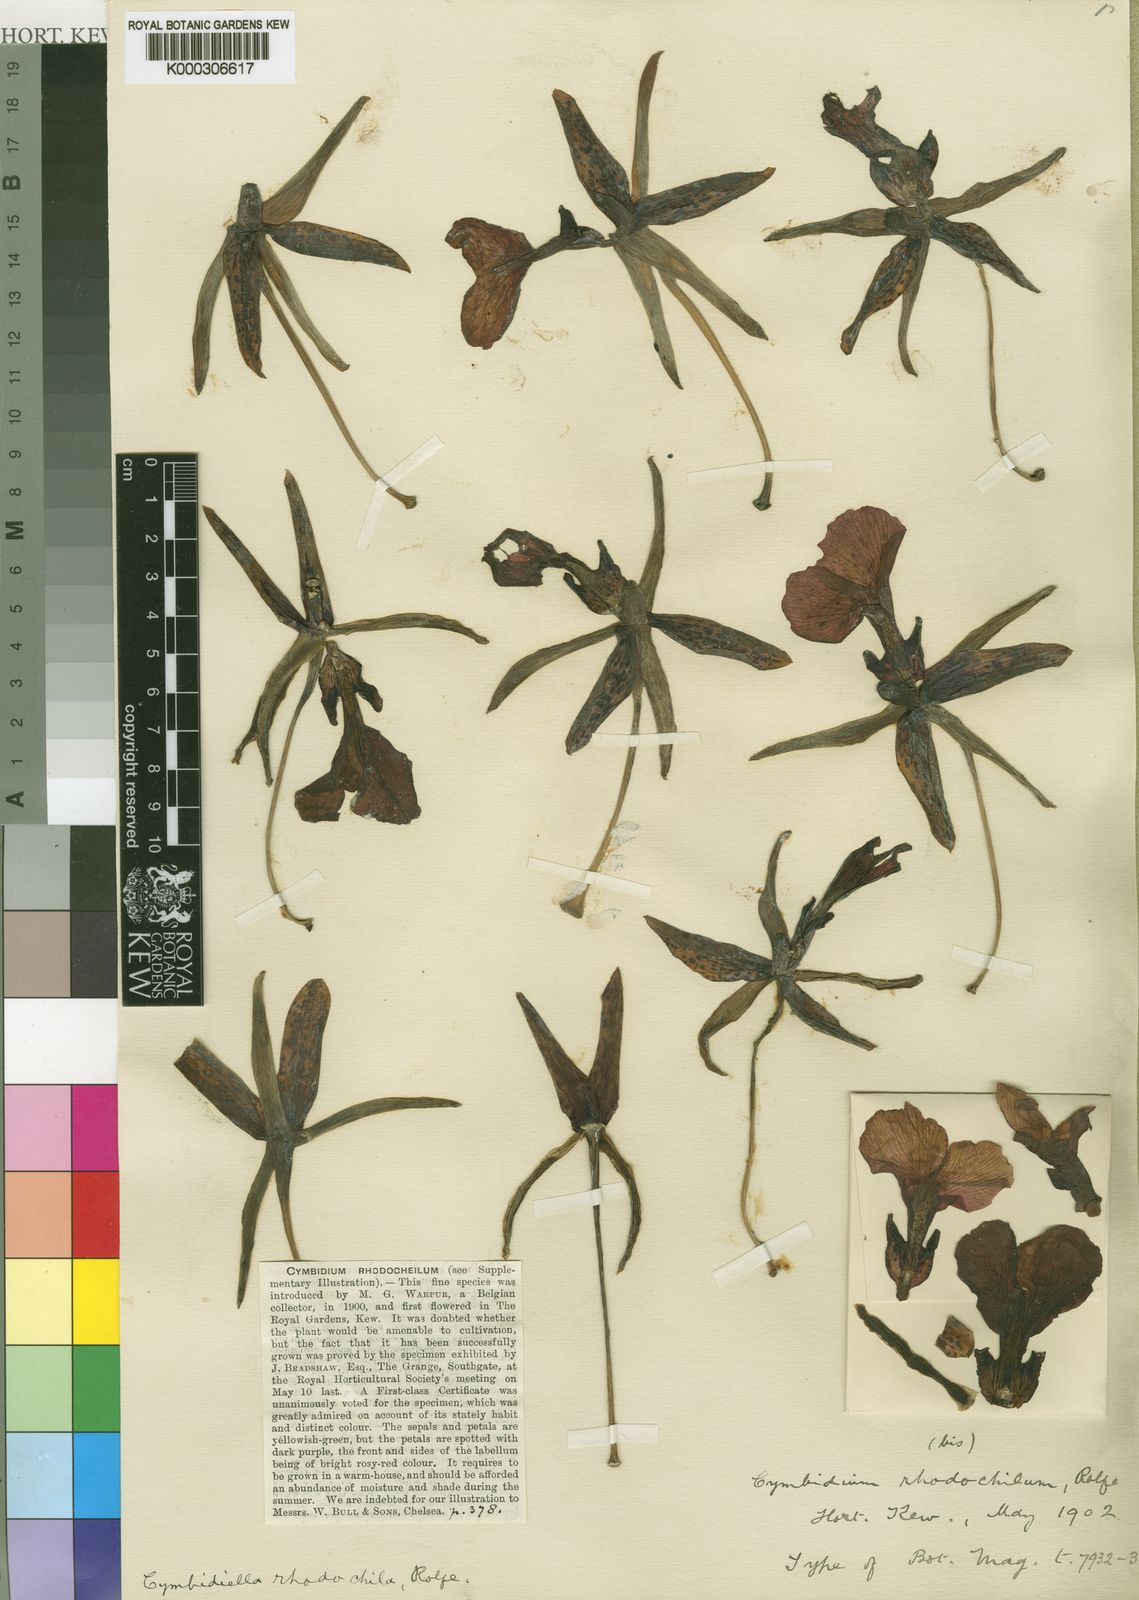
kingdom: Plantae
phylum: Tracheophyta
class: Liliopsida
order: Asparagales
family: Orchidaceae
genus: Eulophia
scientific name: Eulophia pardalina
